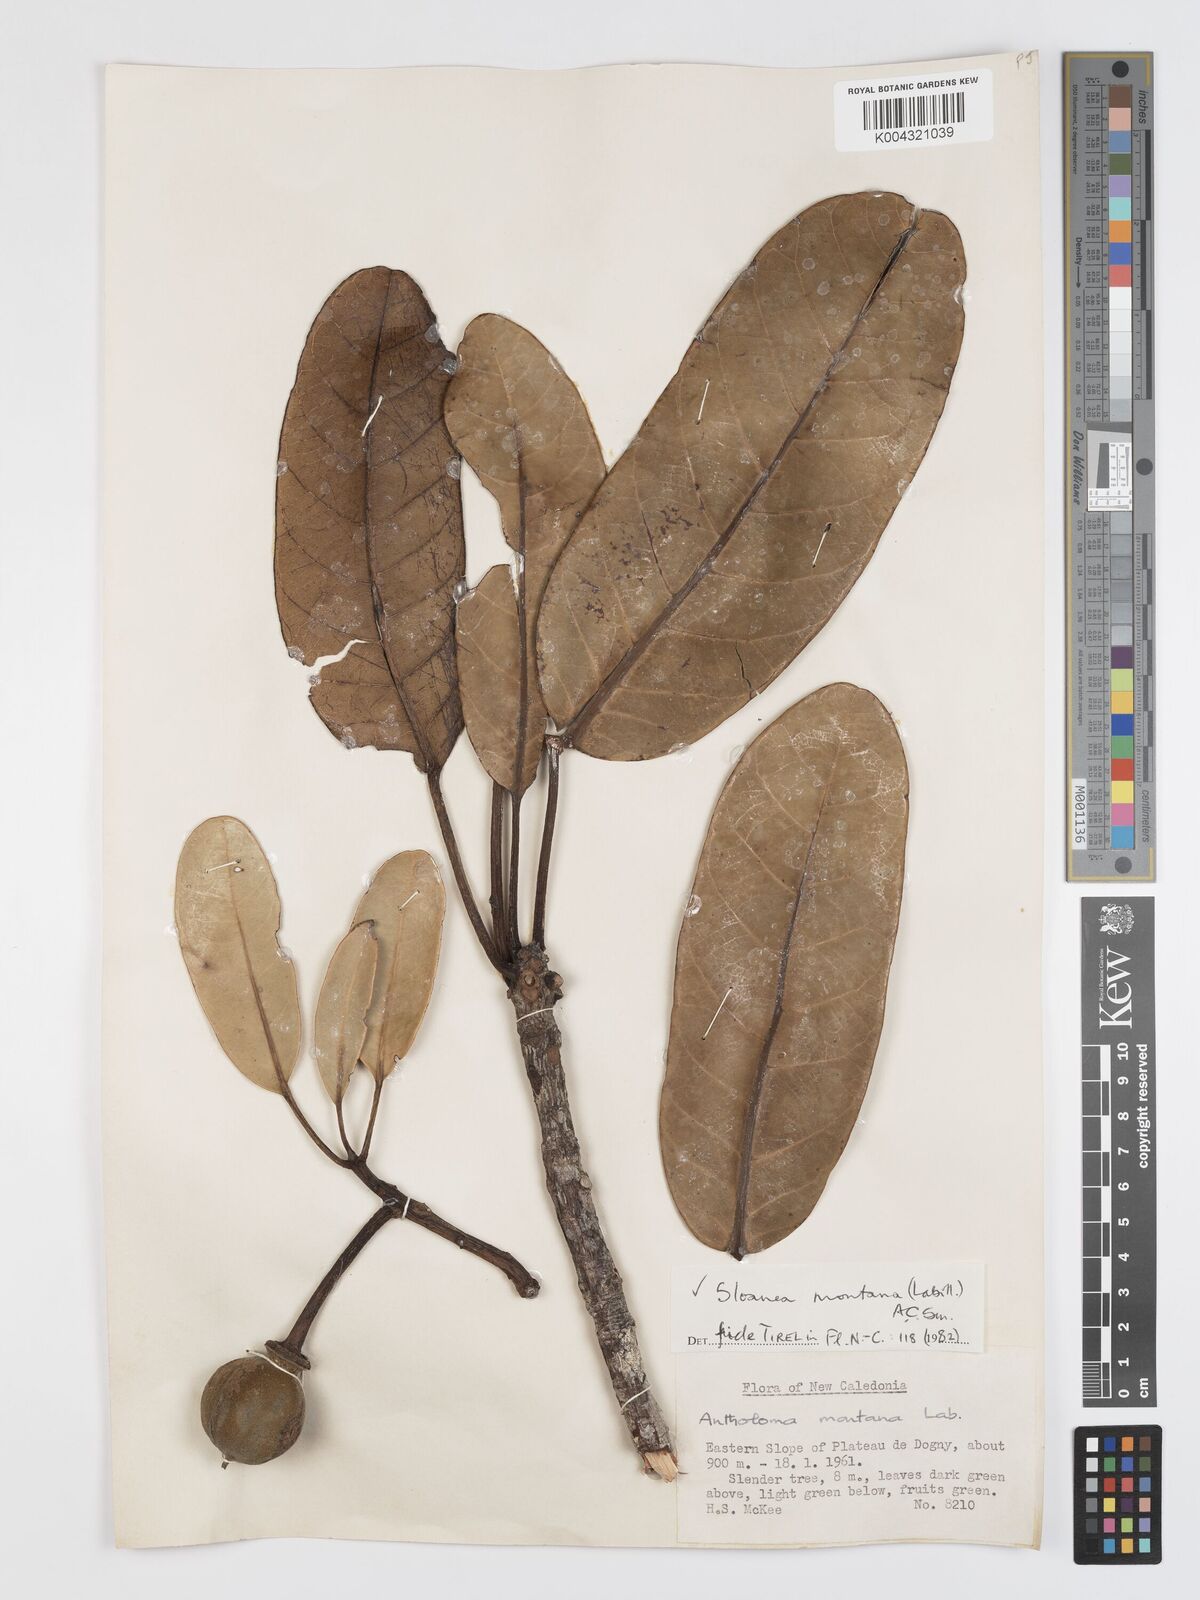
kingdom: Plantae
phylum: Tracheophyta
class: Magnoliopsida
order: Oxalidales
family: Elaeocarpaceae
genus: Sloanea
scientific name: Sloanea montana
